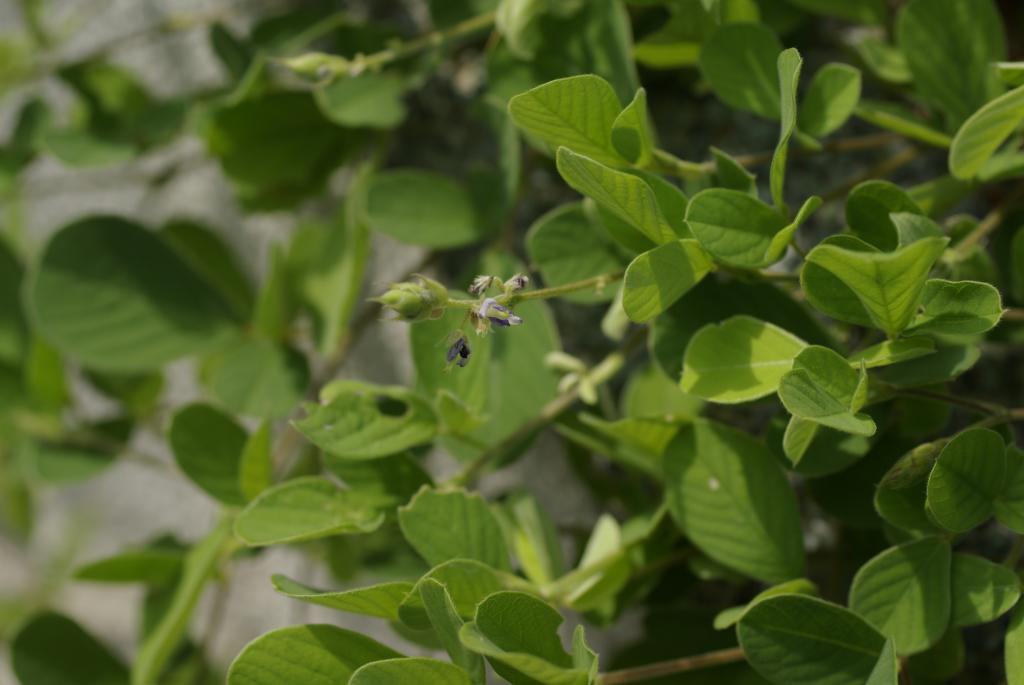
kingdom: Plantae
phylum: Tracheophyta
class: Magnoliopsida
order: Fabales
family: Fabaceae
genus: Pycnospora
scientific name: Pycnospora lutescens
